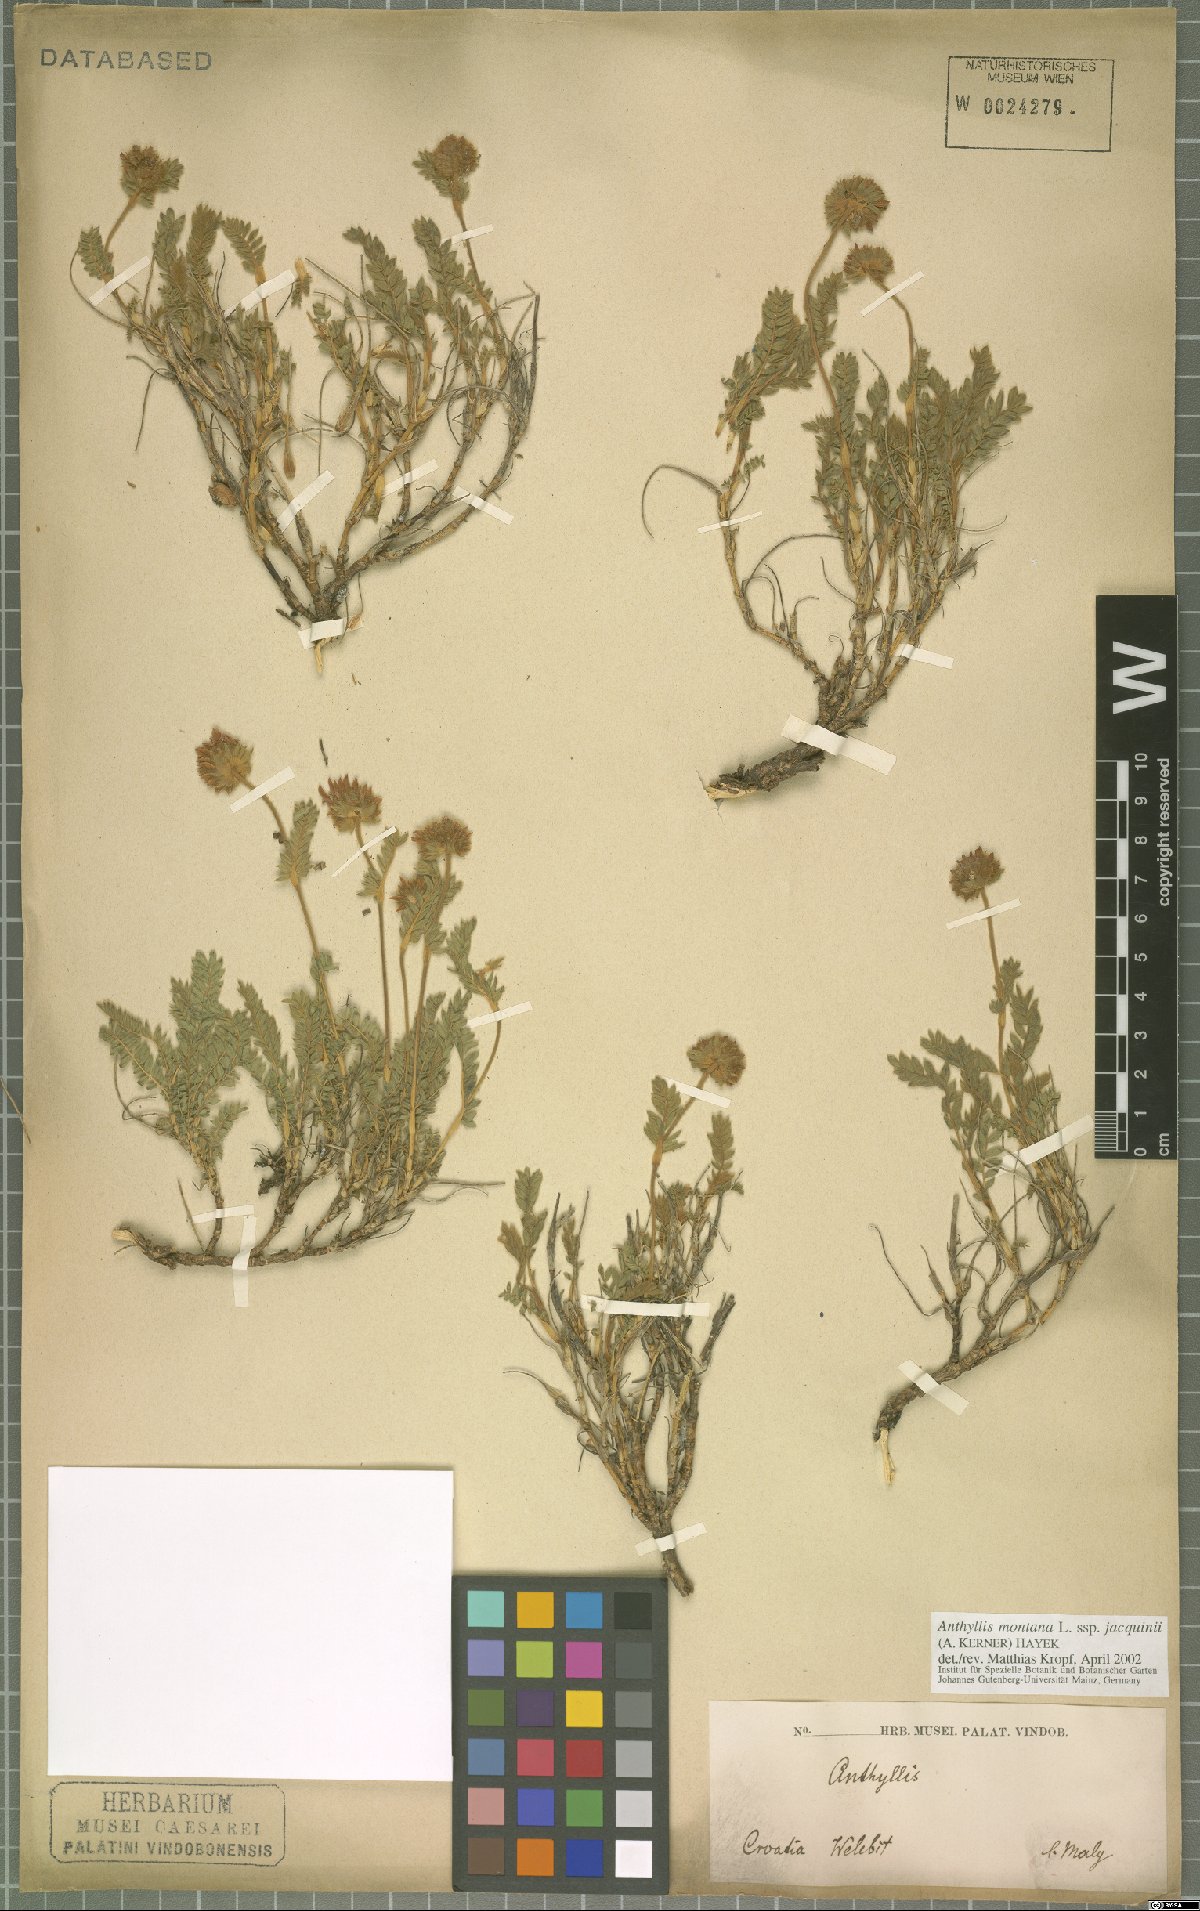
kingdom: Plantae
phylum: Tracheophyta
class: Magnoliopsida
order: Fabales
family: Fabaceae
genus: Anthyllis
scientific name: Anthyllis montana
